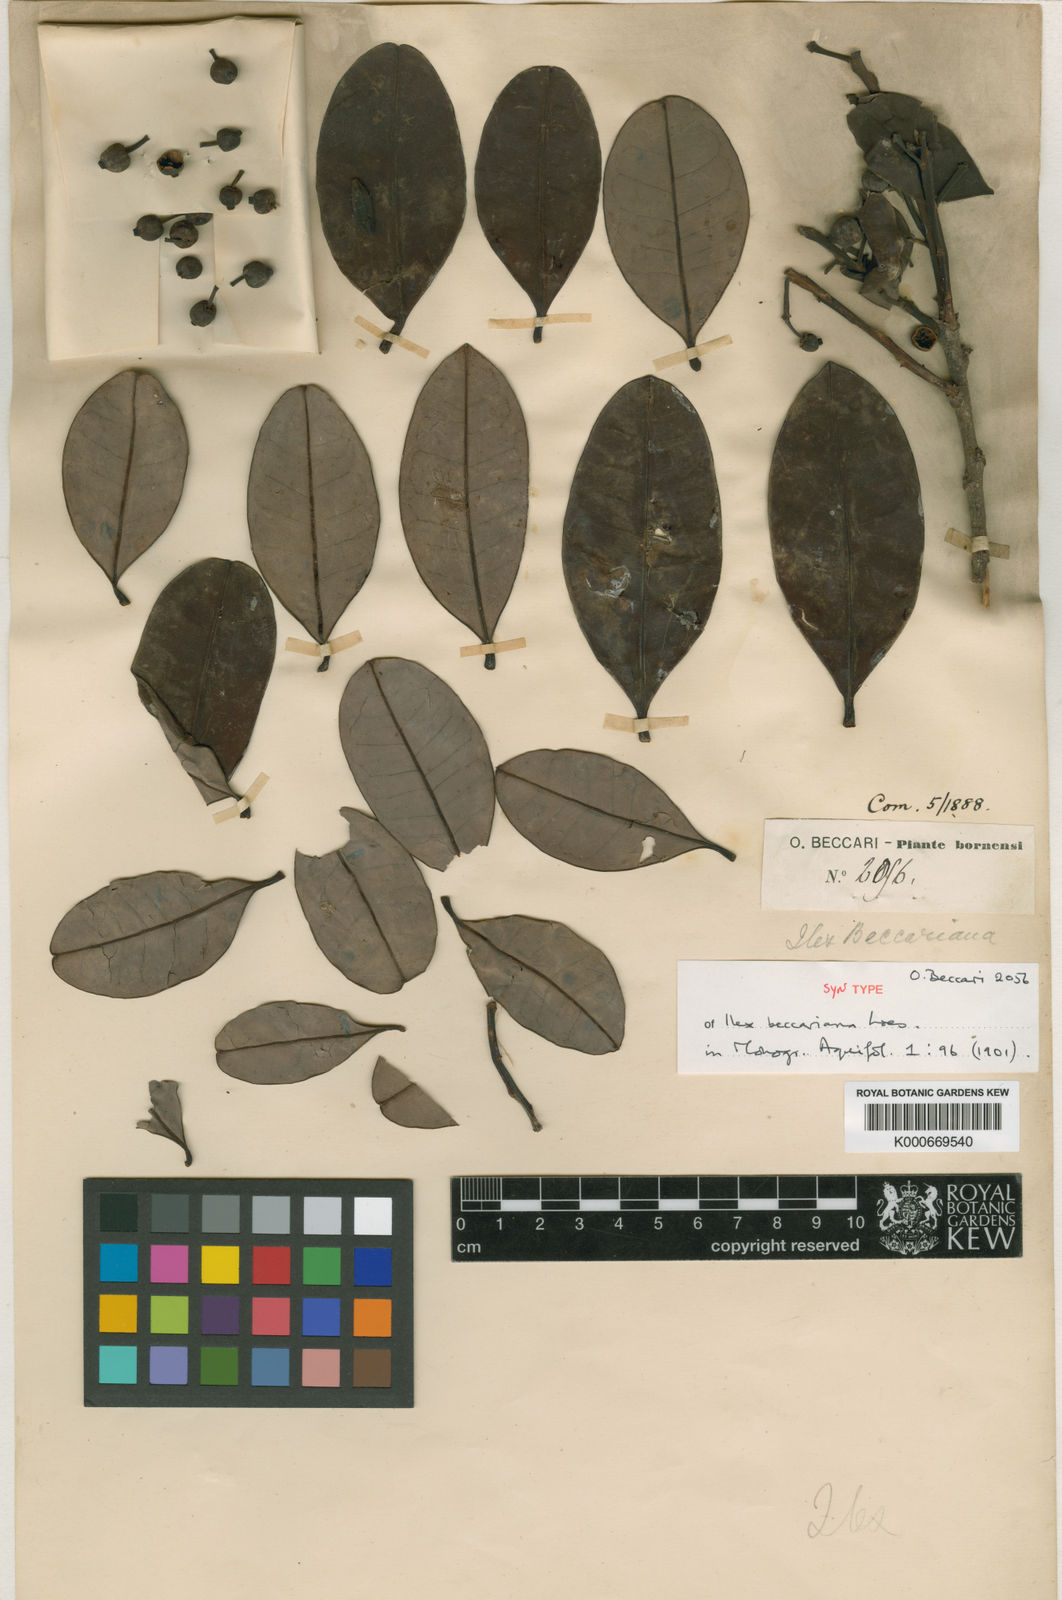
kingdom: Plantae
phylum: Tracheophyta
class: Magnoliopsida
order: Aquifoliales
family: Aquifoliaceae
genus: Ilex
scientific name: Ilex hypoglauca
